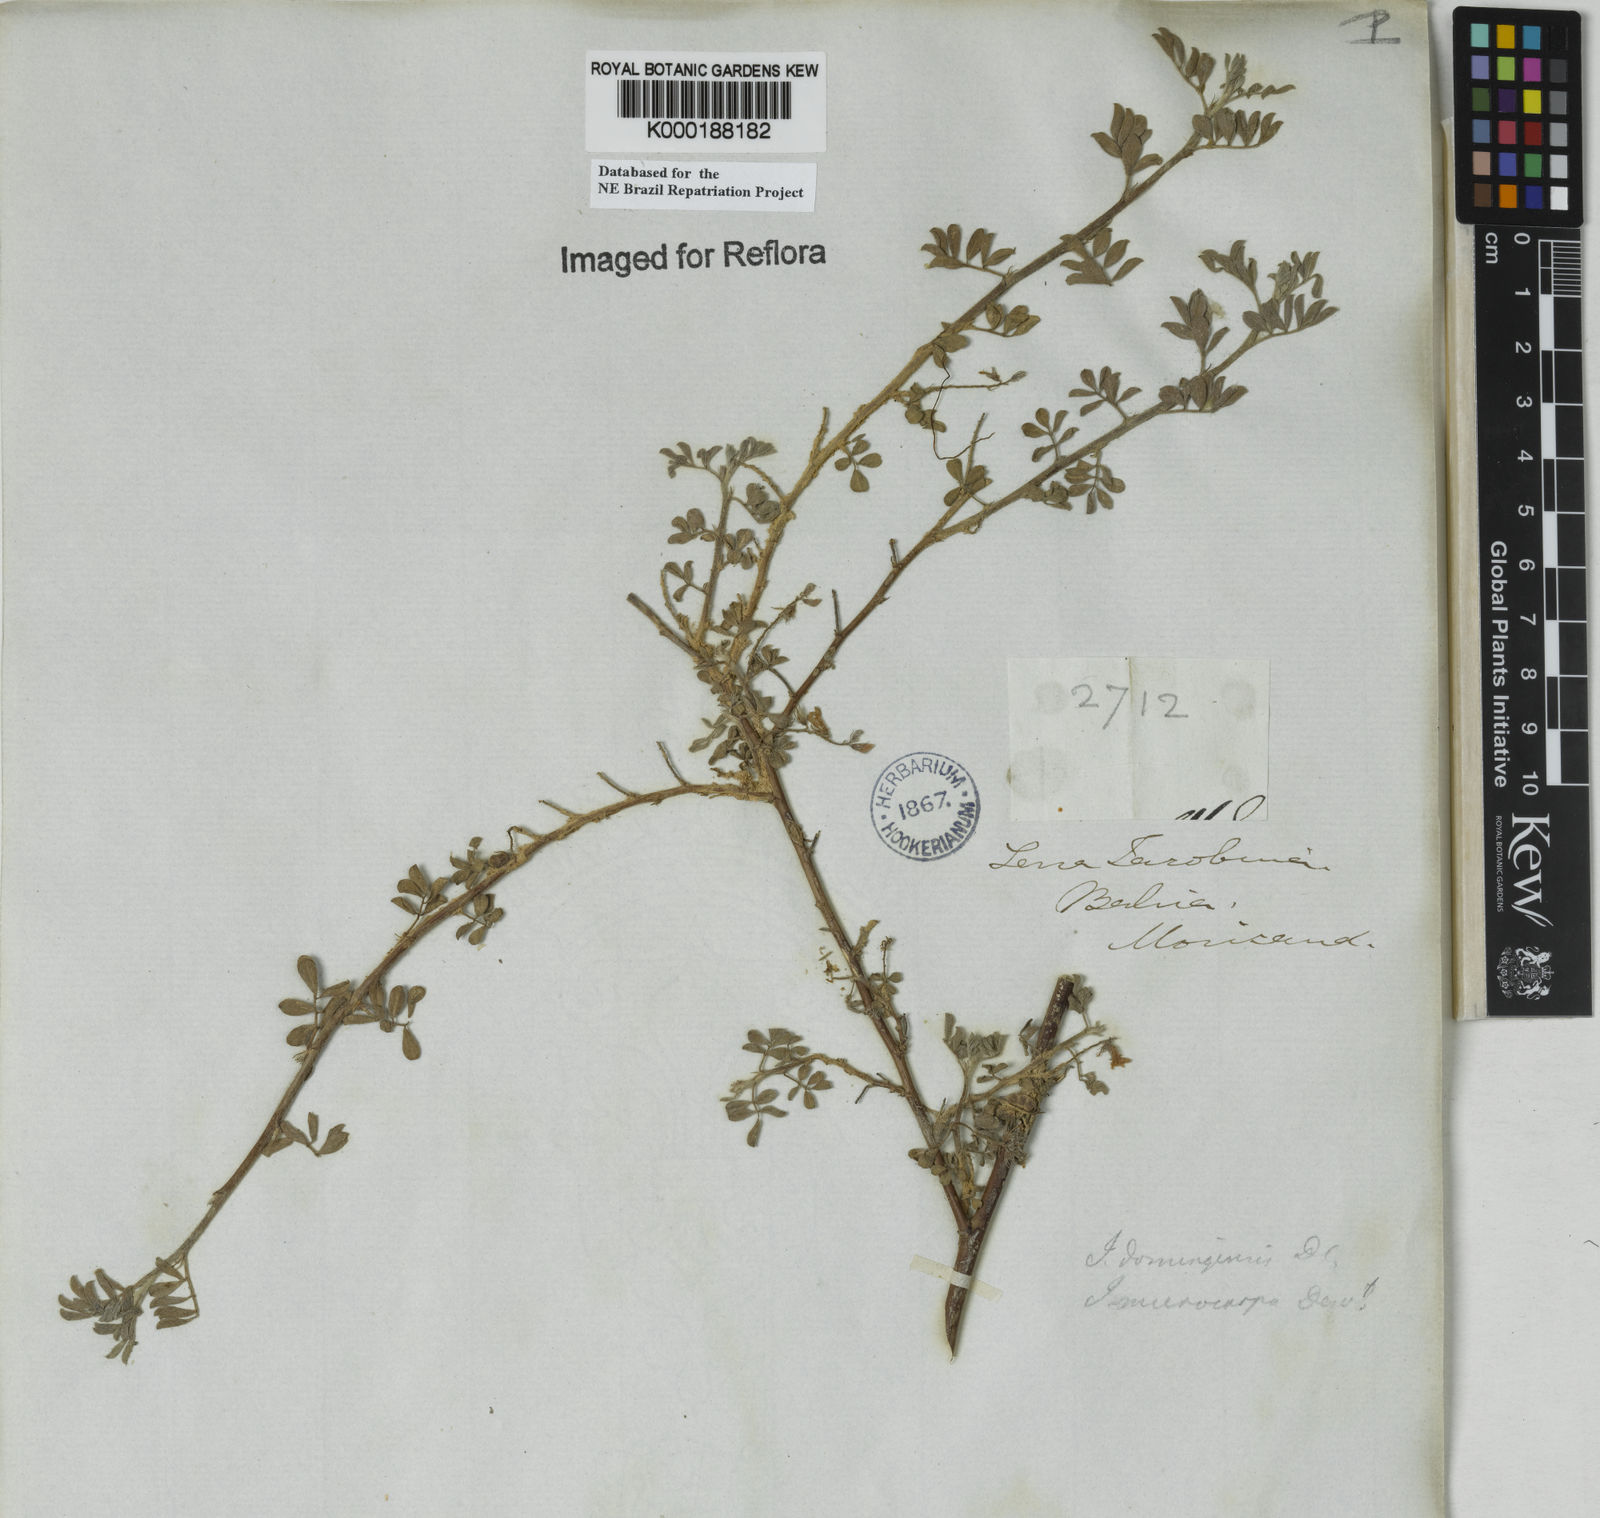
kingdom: Plantae
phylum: Tracheophyta
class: Magnoliopsida
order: Fabales
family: Fabaceae
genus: Indigofera
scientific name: Indigofera microcarpa
